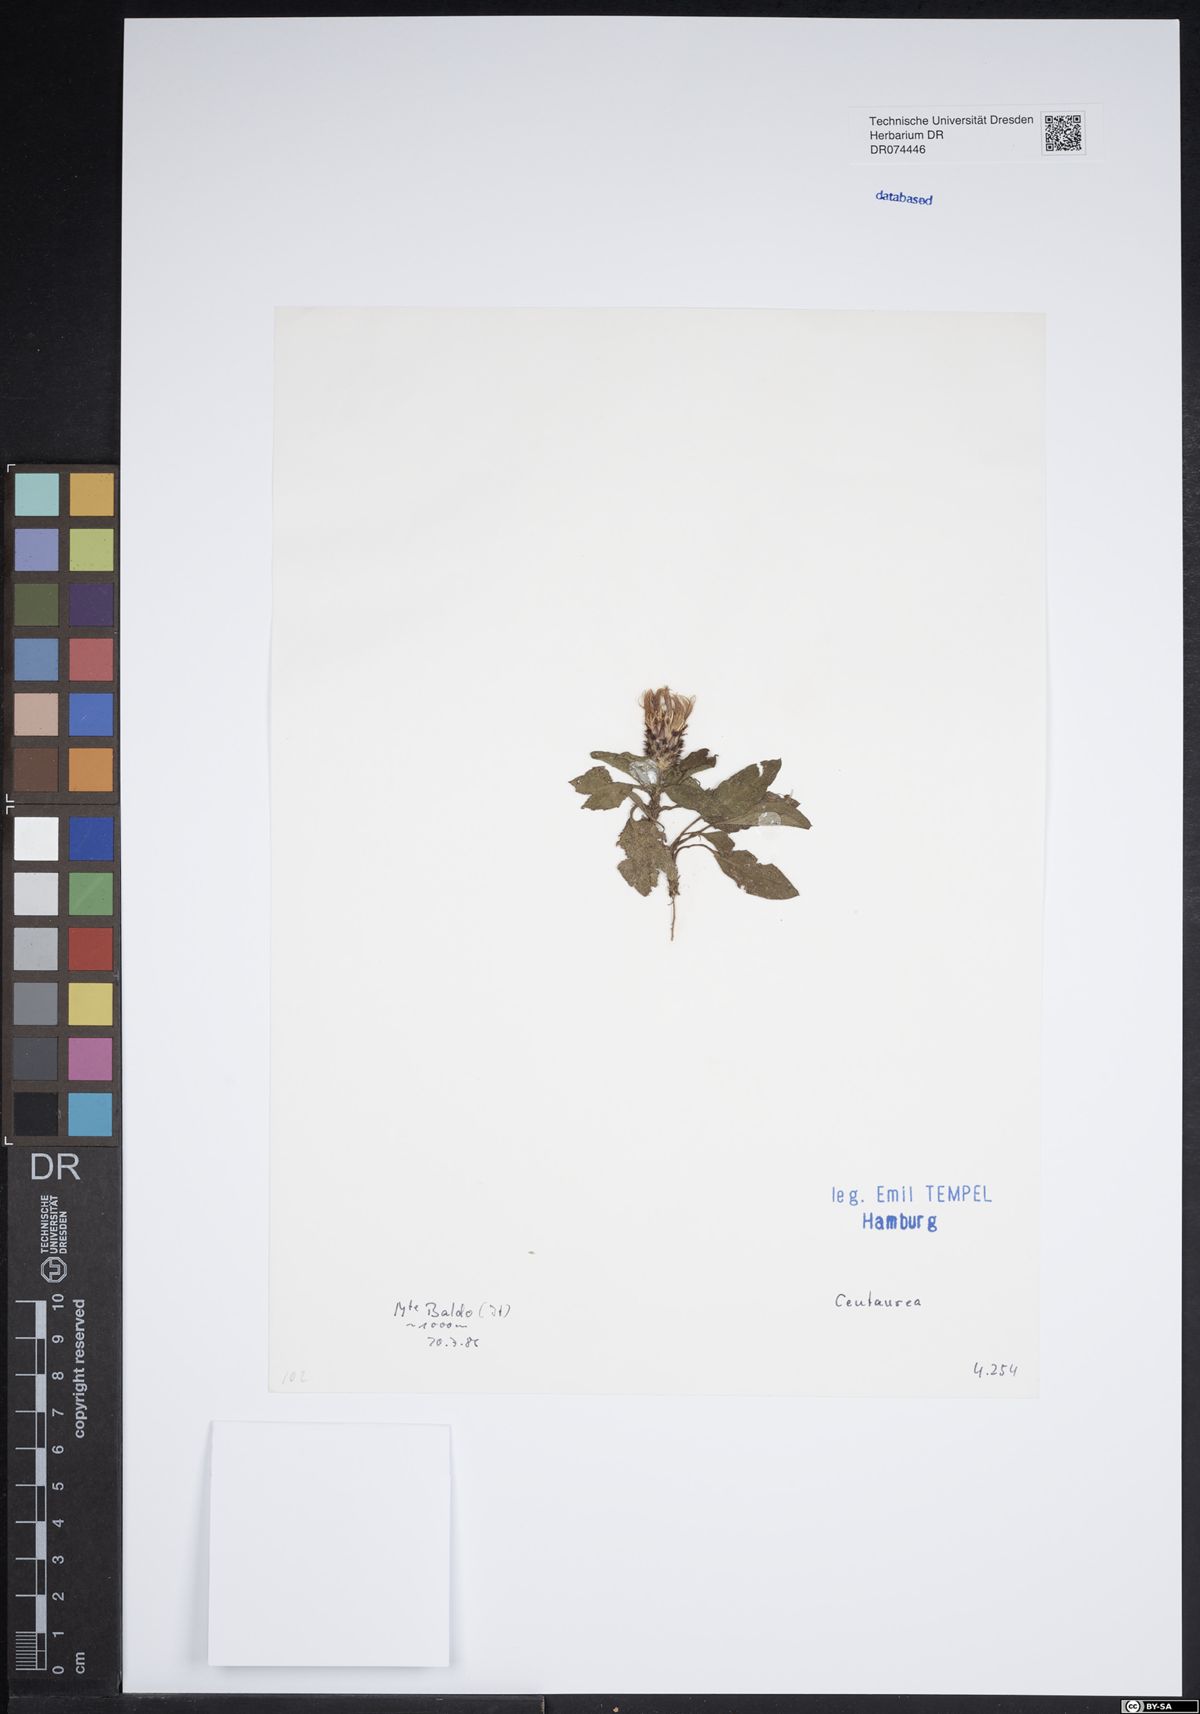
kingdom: Plantae
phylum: Tracheophyta
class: Magnoliopsida
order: Asterales
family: Asteraceae
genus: Centaurea
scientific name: Centaurea
